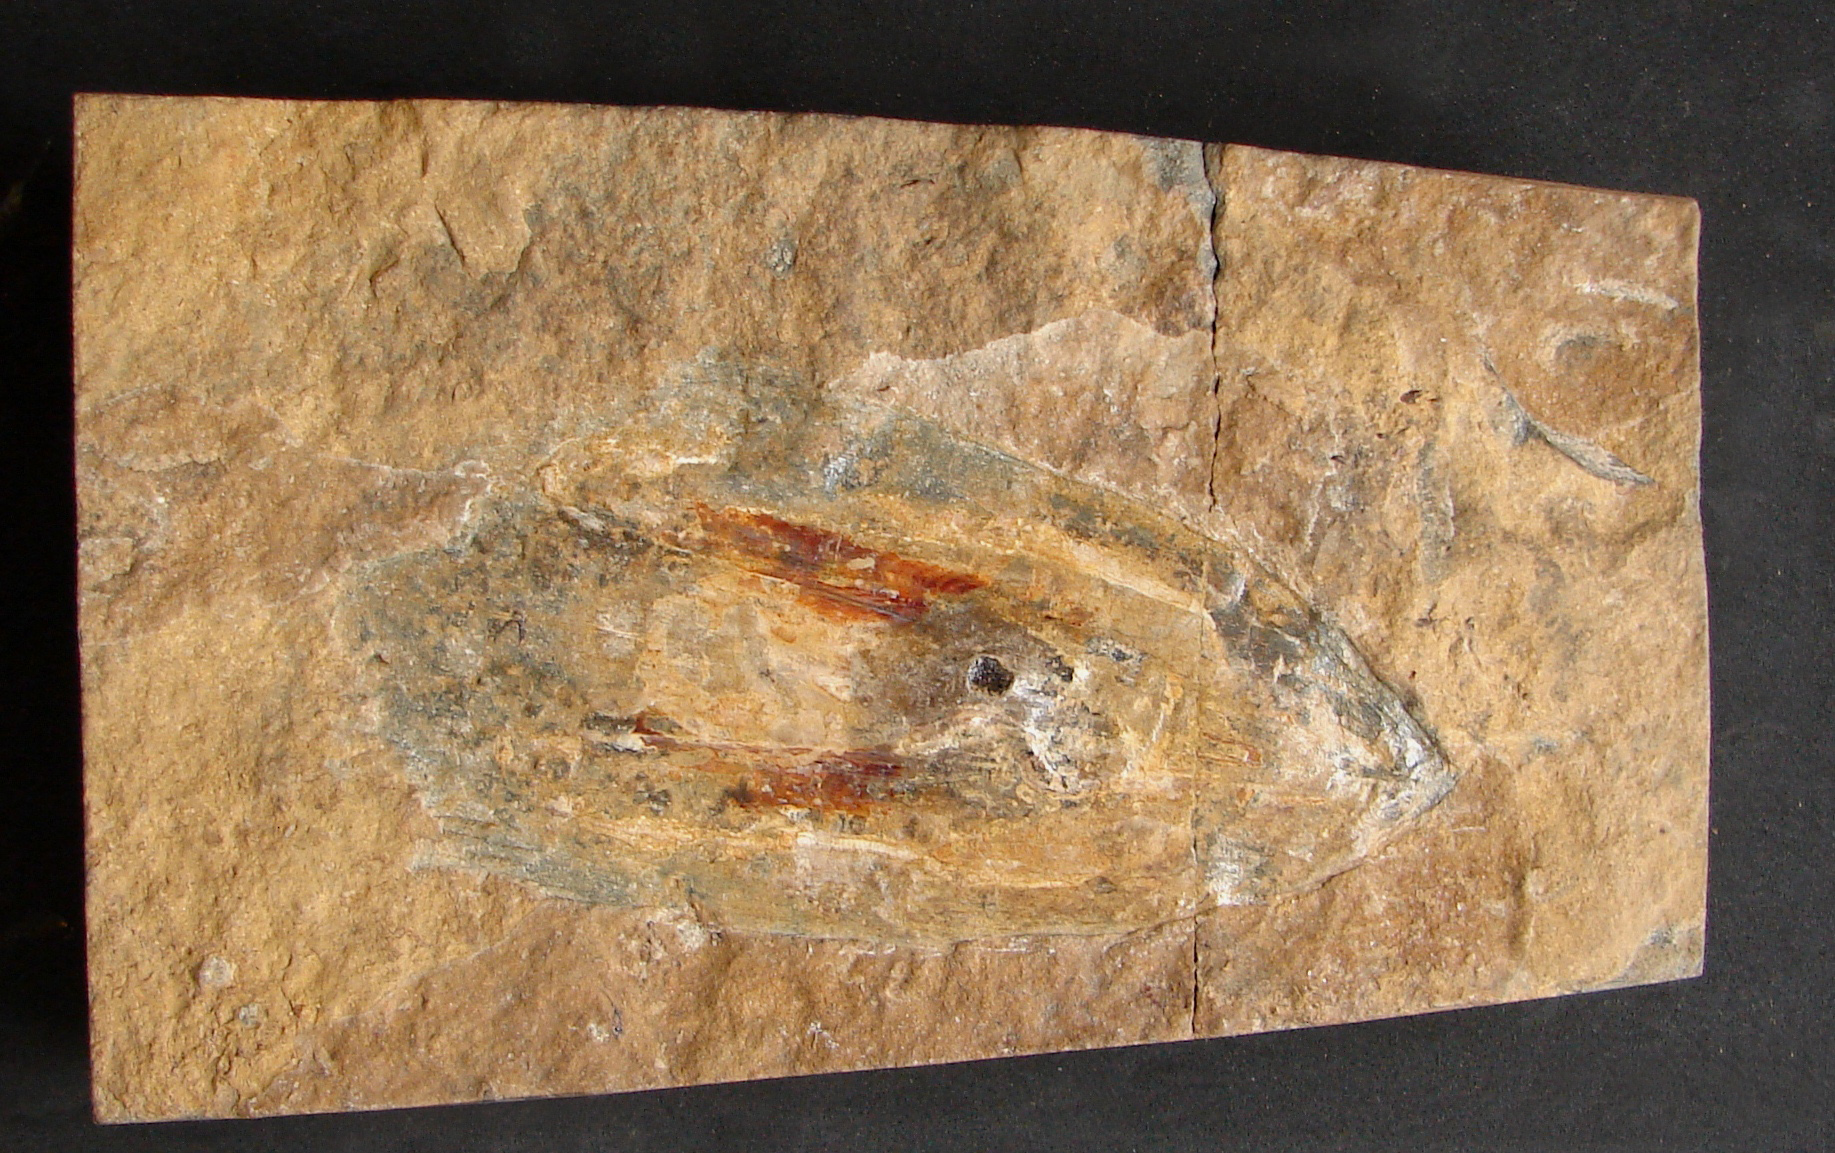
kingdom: Animalia
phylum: Mollusca
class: Cephalopoda
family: Loligosepiidae
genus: Parabelopeltis
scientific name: Parabelopeltis
